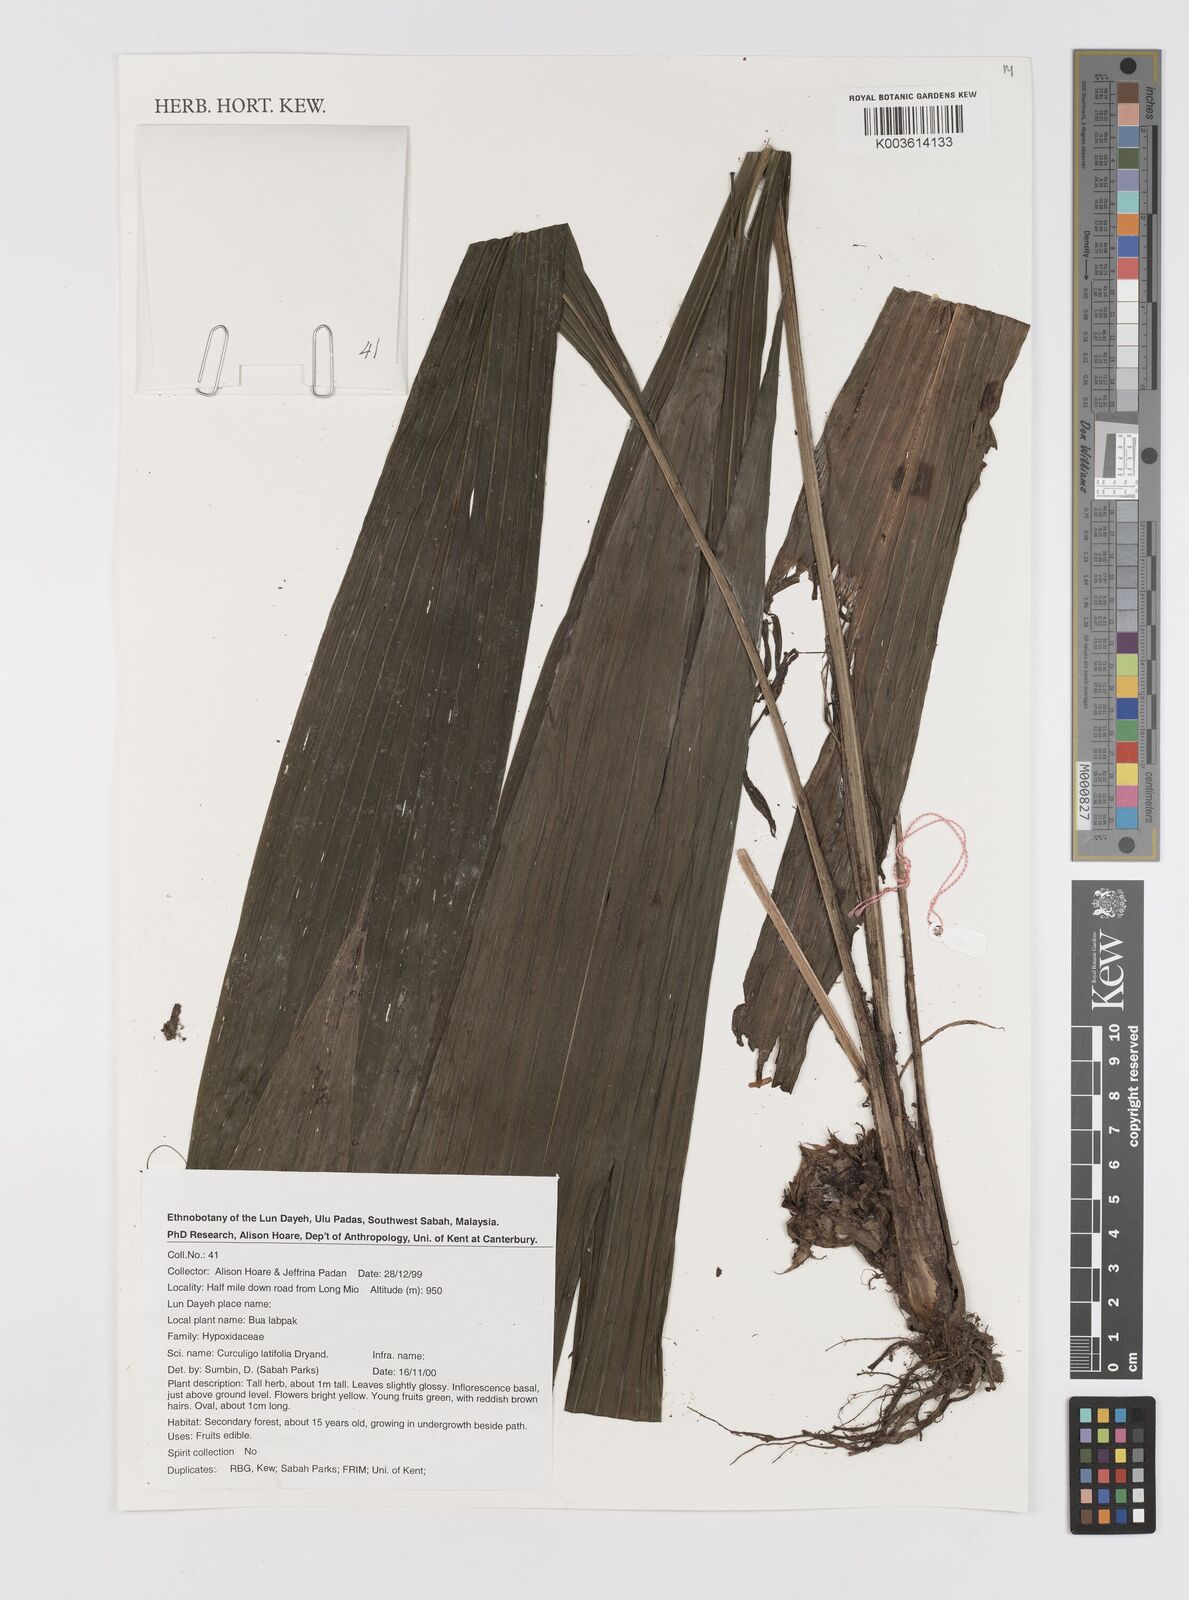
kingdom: Plantae
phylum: Tracheophyta
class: Liliopsida
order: Asparagales
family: Hypoxidaceae
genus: Curculigo
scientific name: Curculigo latifolia
